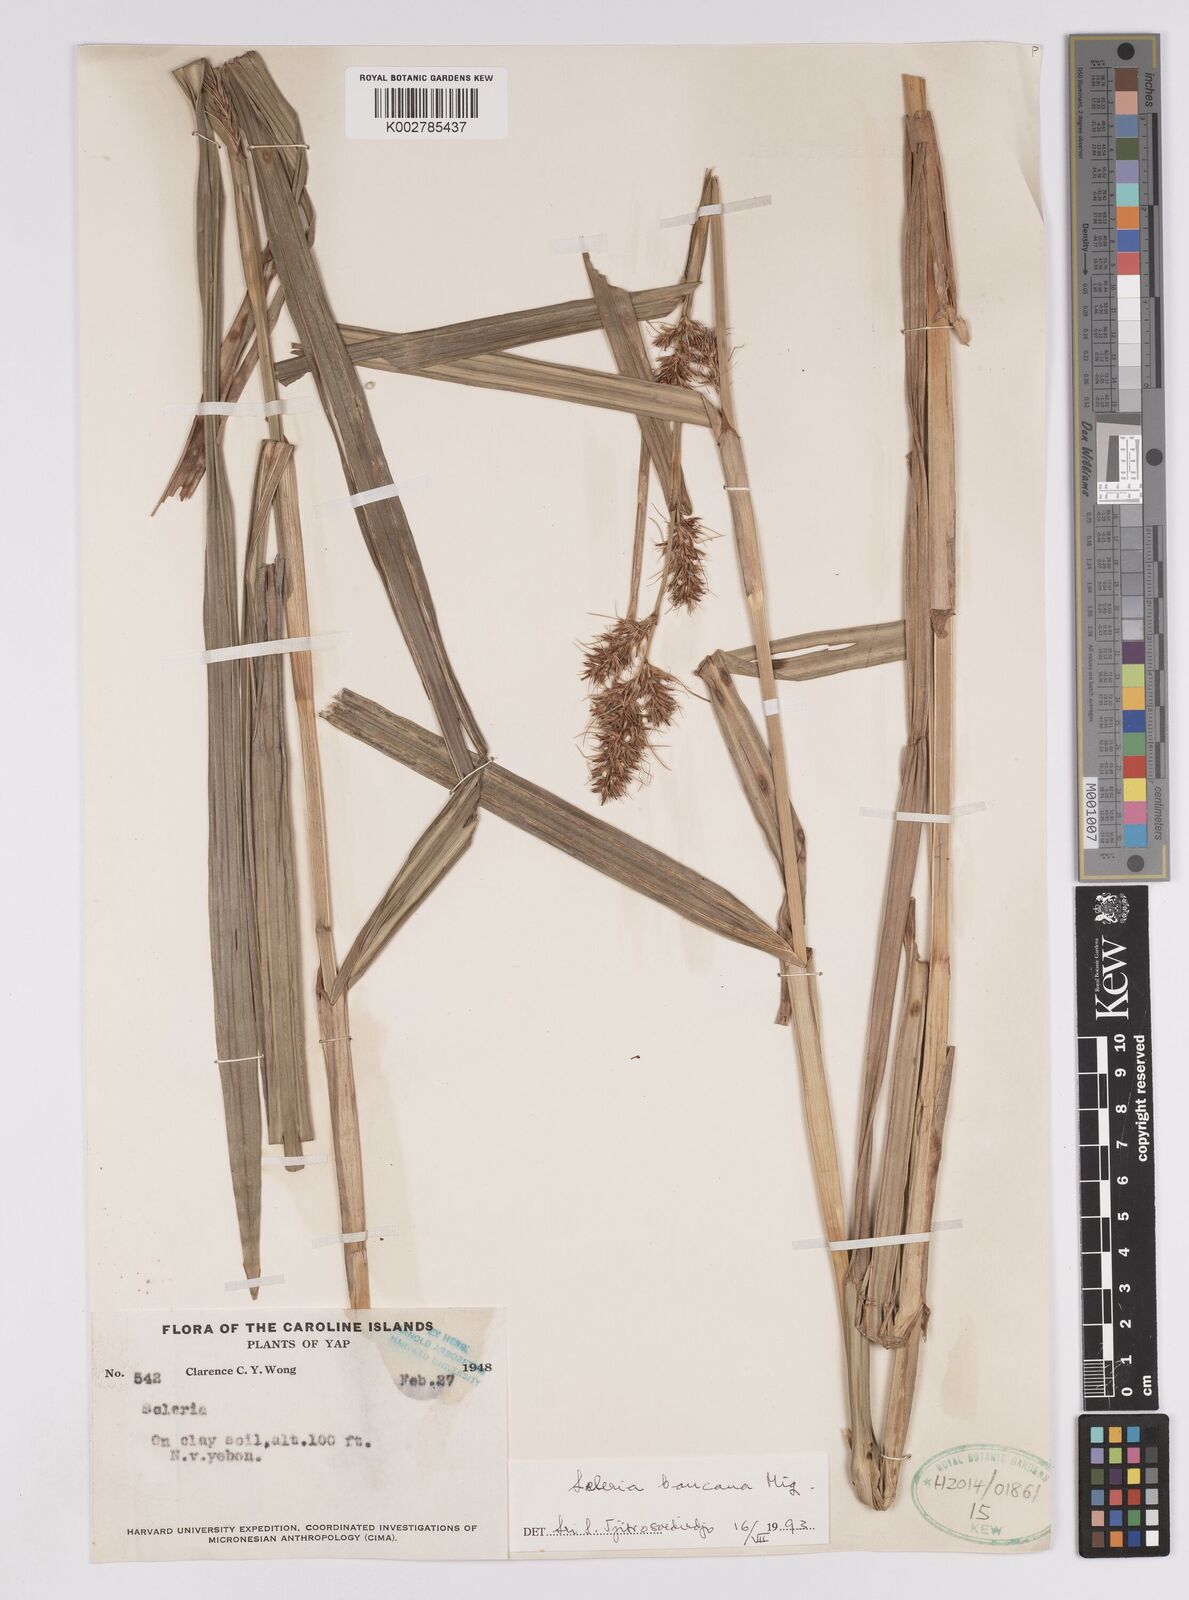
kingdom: Plantae
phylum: Tracheophyta
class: Liliopsida
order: Poales
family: Cyperaceae
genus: Scleria
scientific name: Scleria ciliaris
